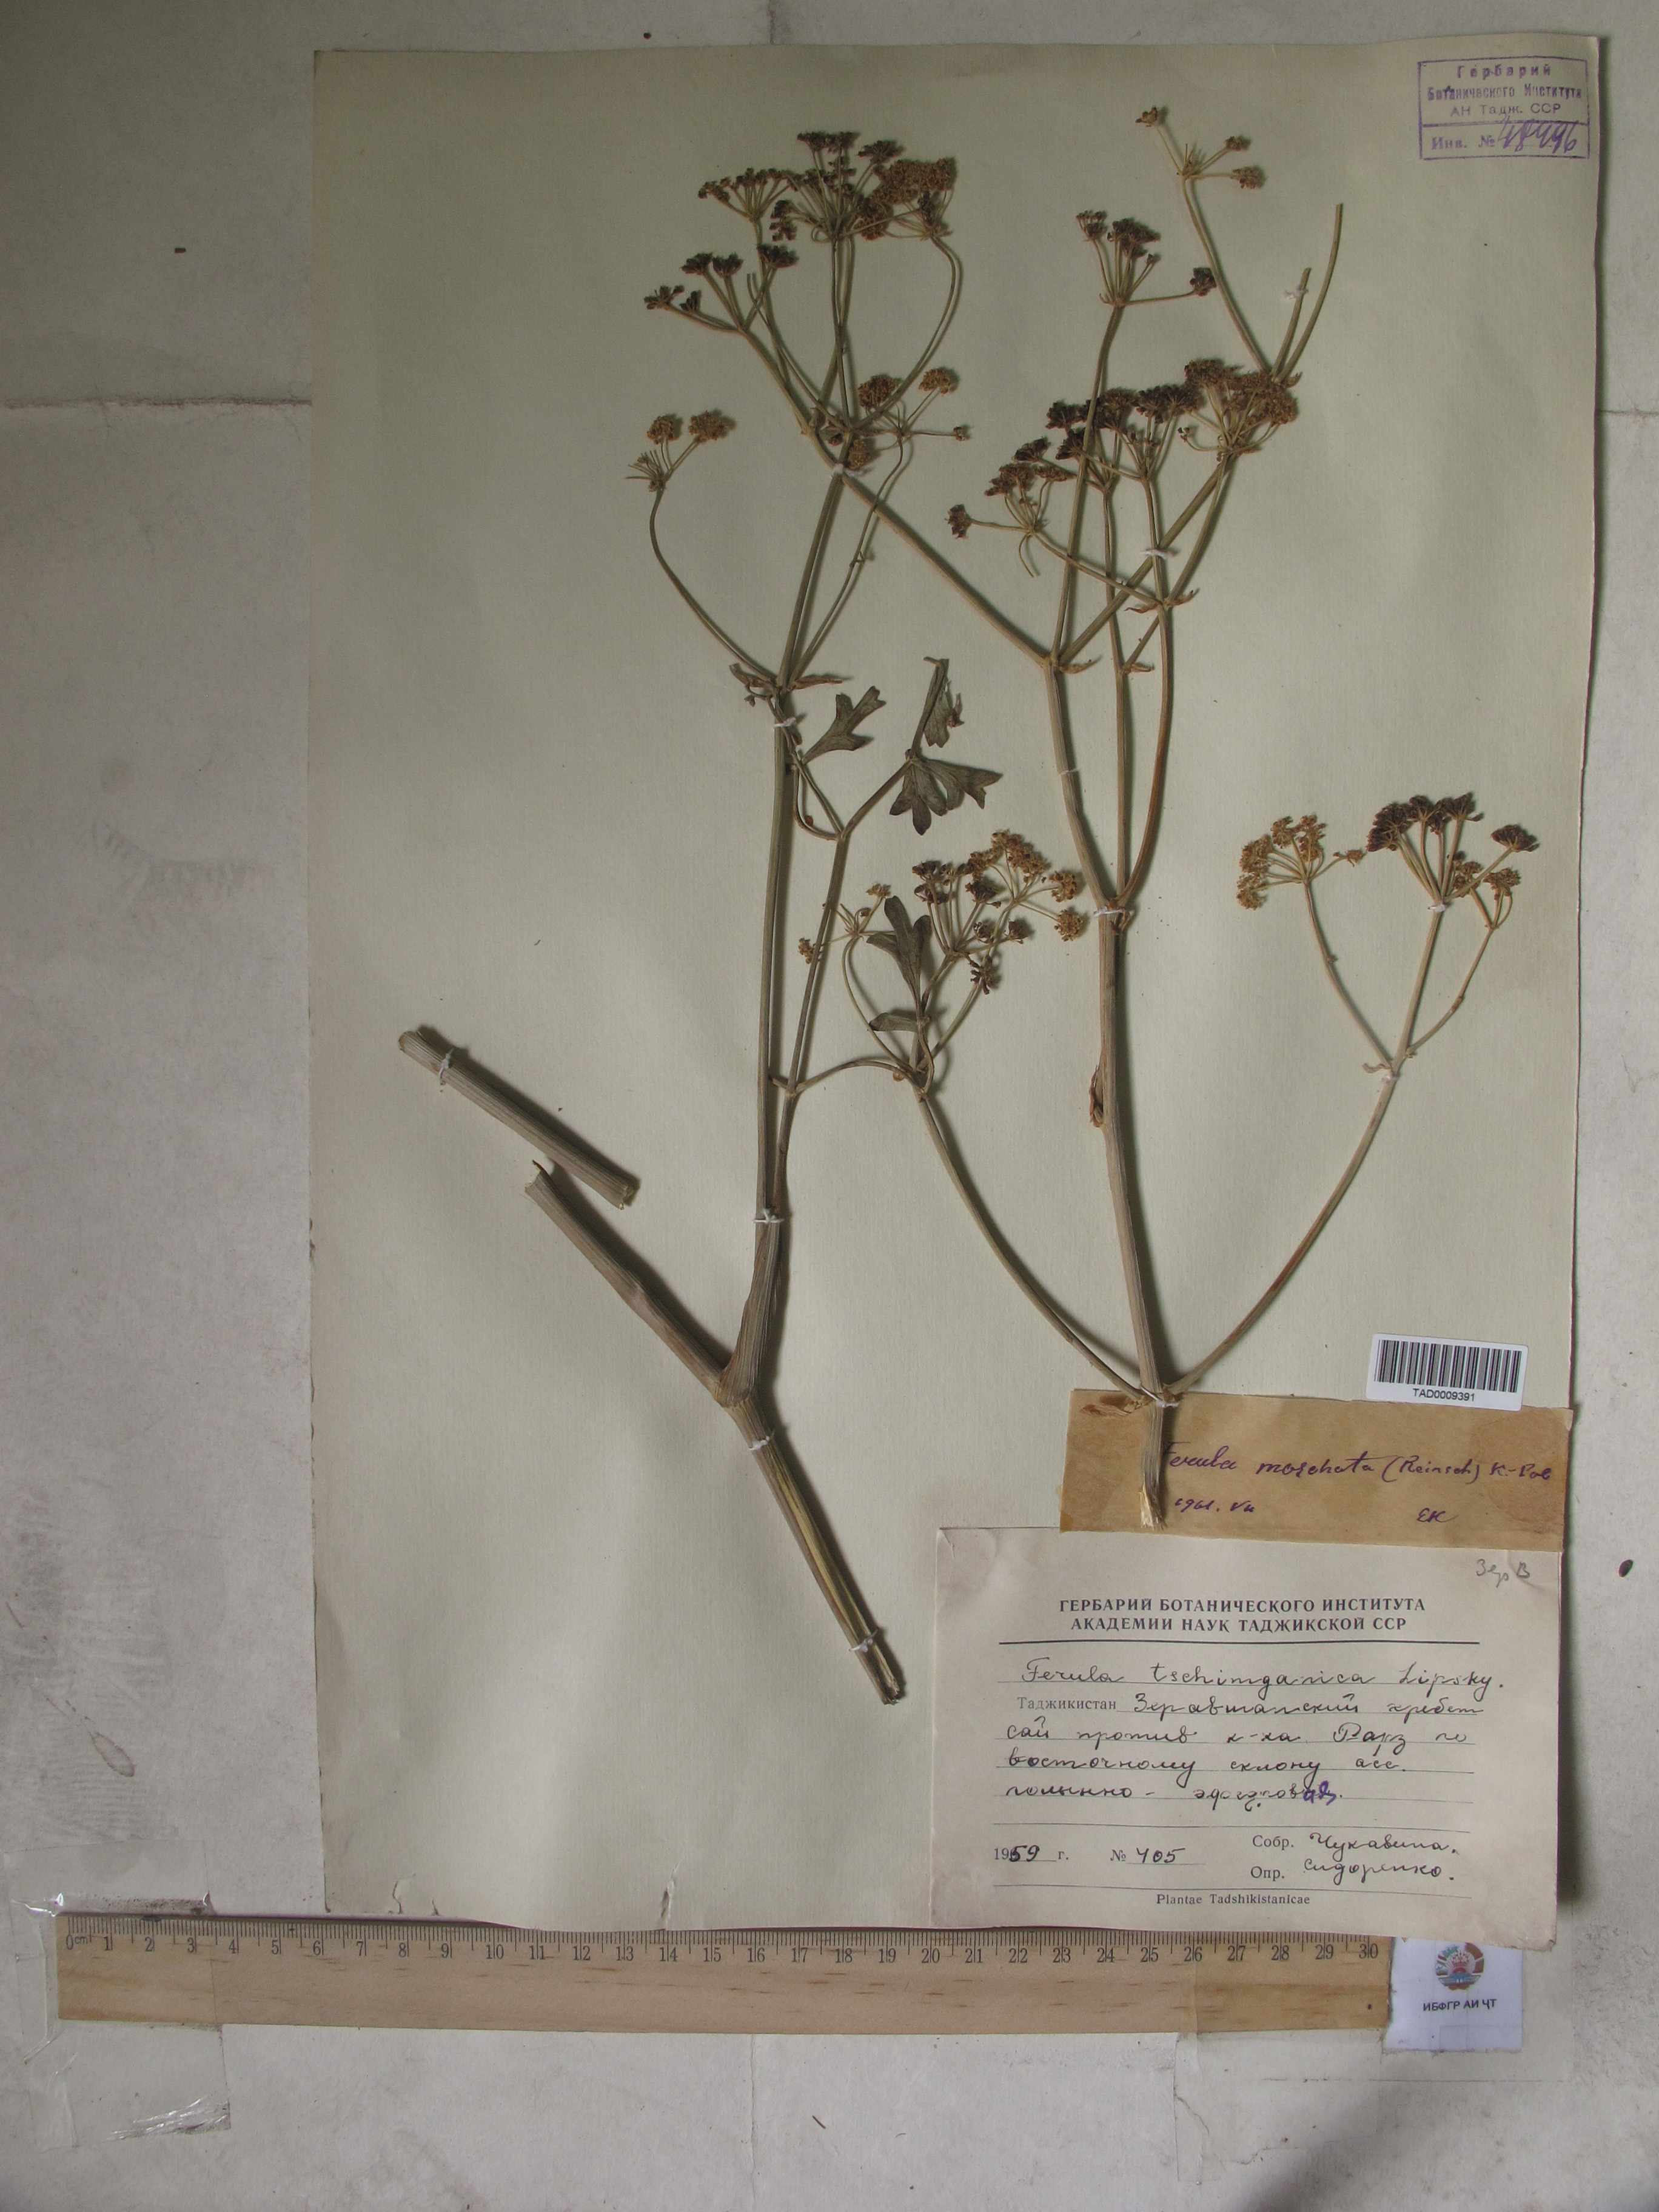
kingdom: Plantae
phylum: Tracheophyta
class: Magnoliopsida
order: Apiales
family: Apiaceae
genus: Ferula
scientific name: Ferula moschata
